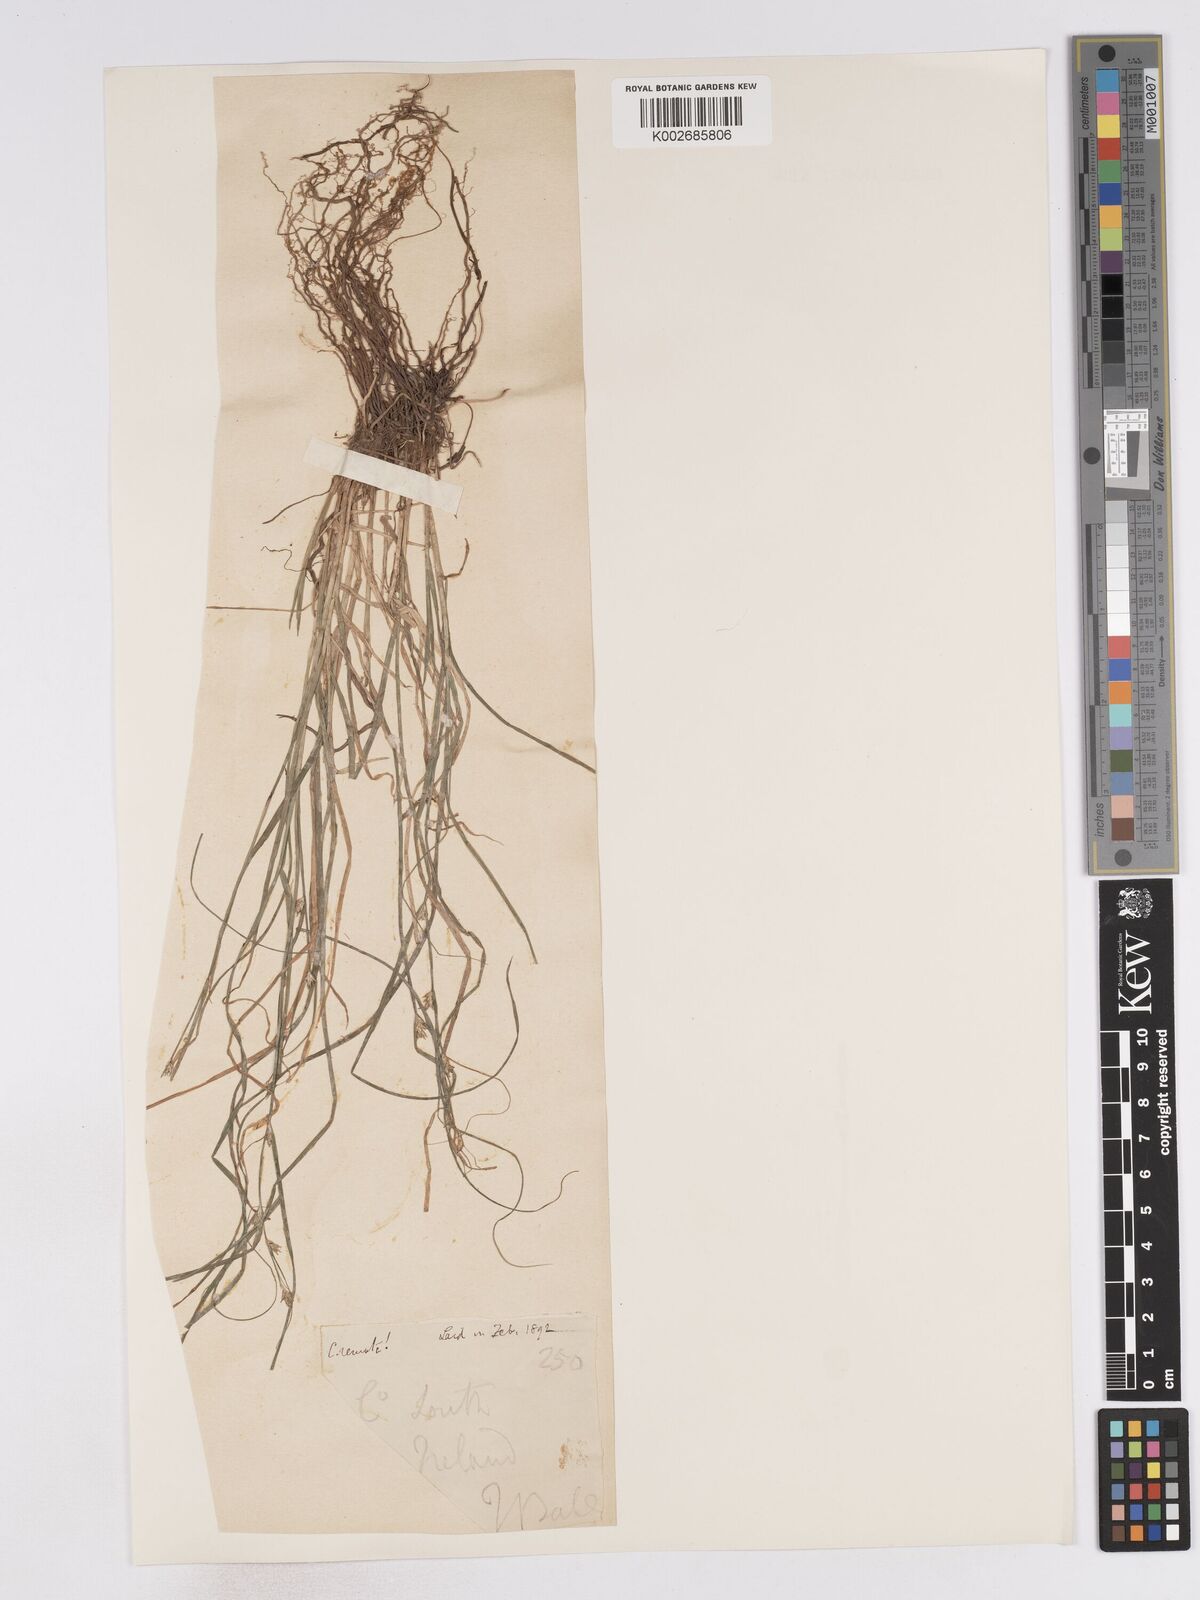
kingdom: Plantae
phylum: Tracheophyta
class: Liliopsida
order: Poales
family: Cyperaceae
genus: Carex
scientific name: Carex remota
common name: Remote sedge
